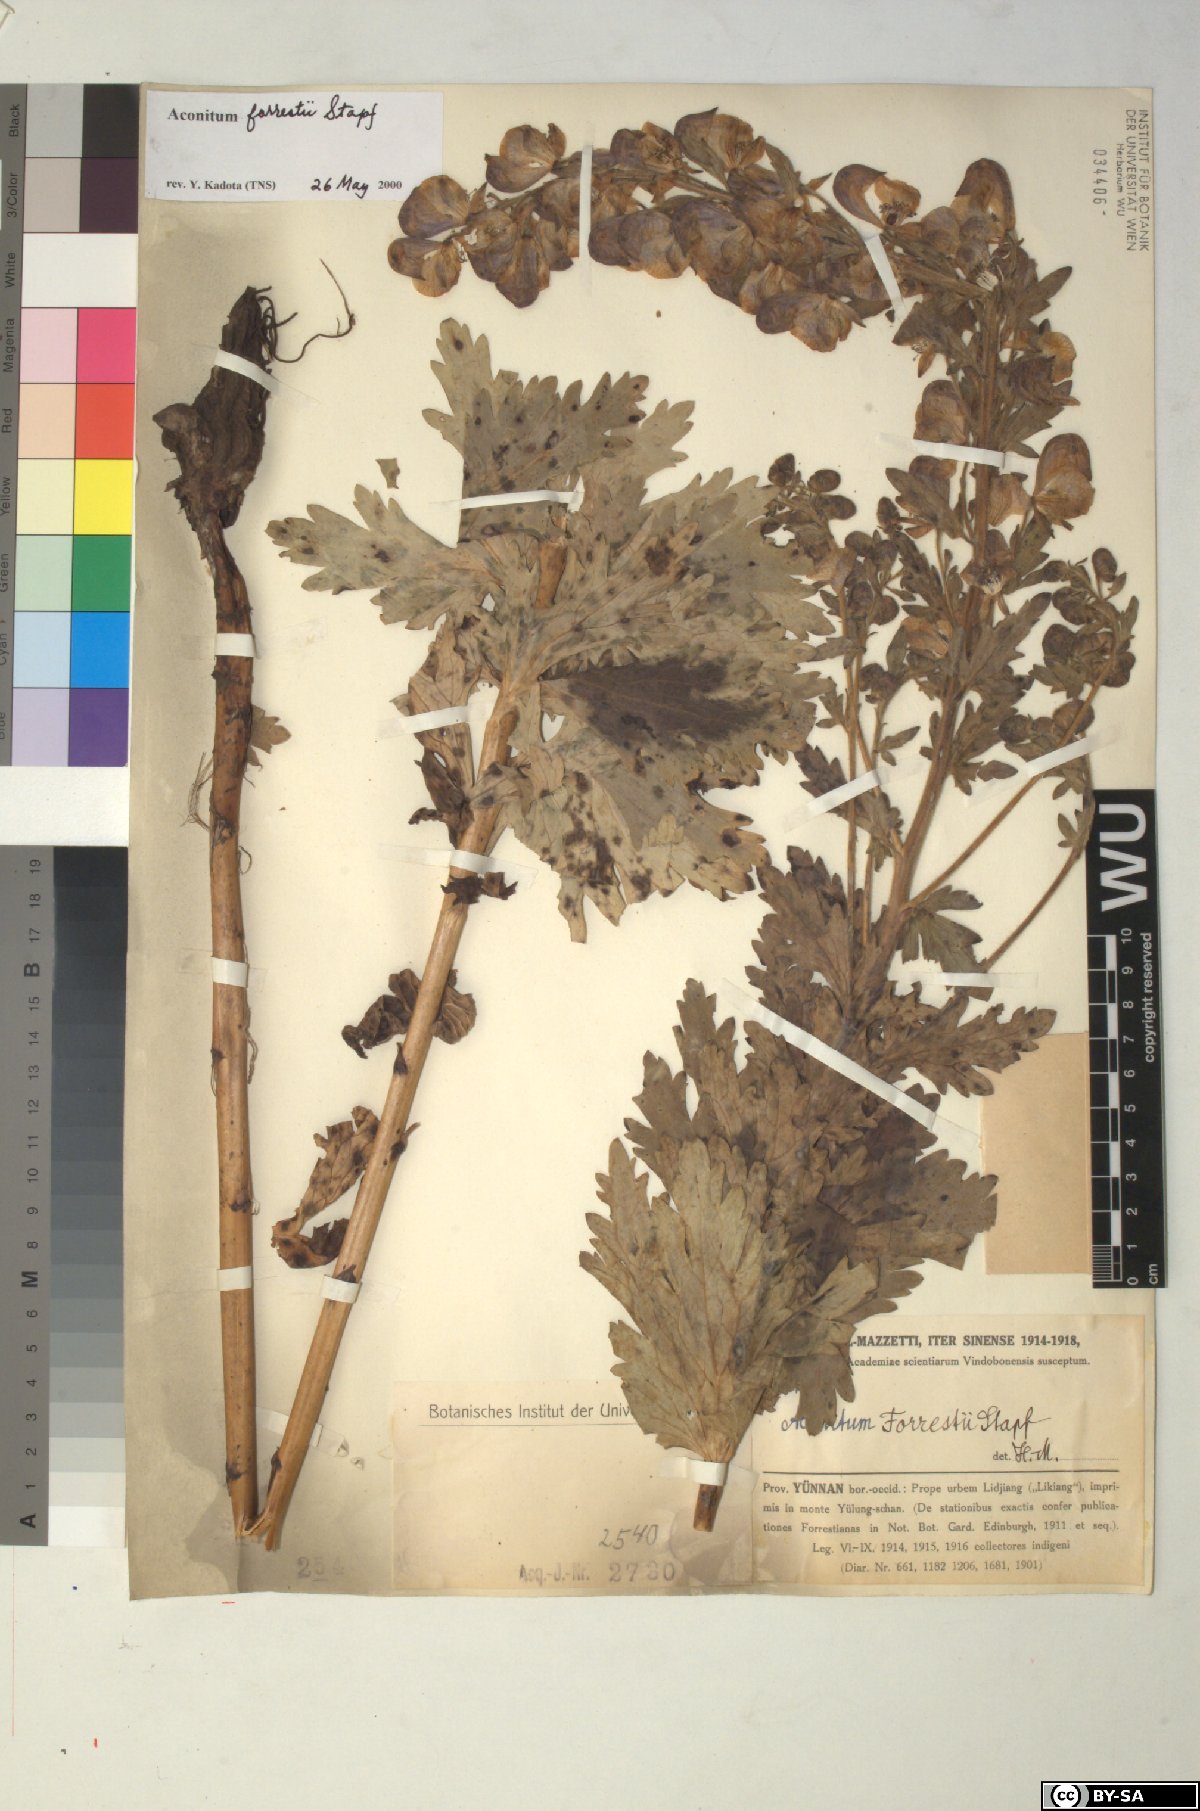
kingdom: Plantae
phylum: Tracheophyta
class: Magnoliopsida
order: Ranunculales
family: Ranunculaceae
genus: Aconitum
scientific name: Aconitum forrestii
